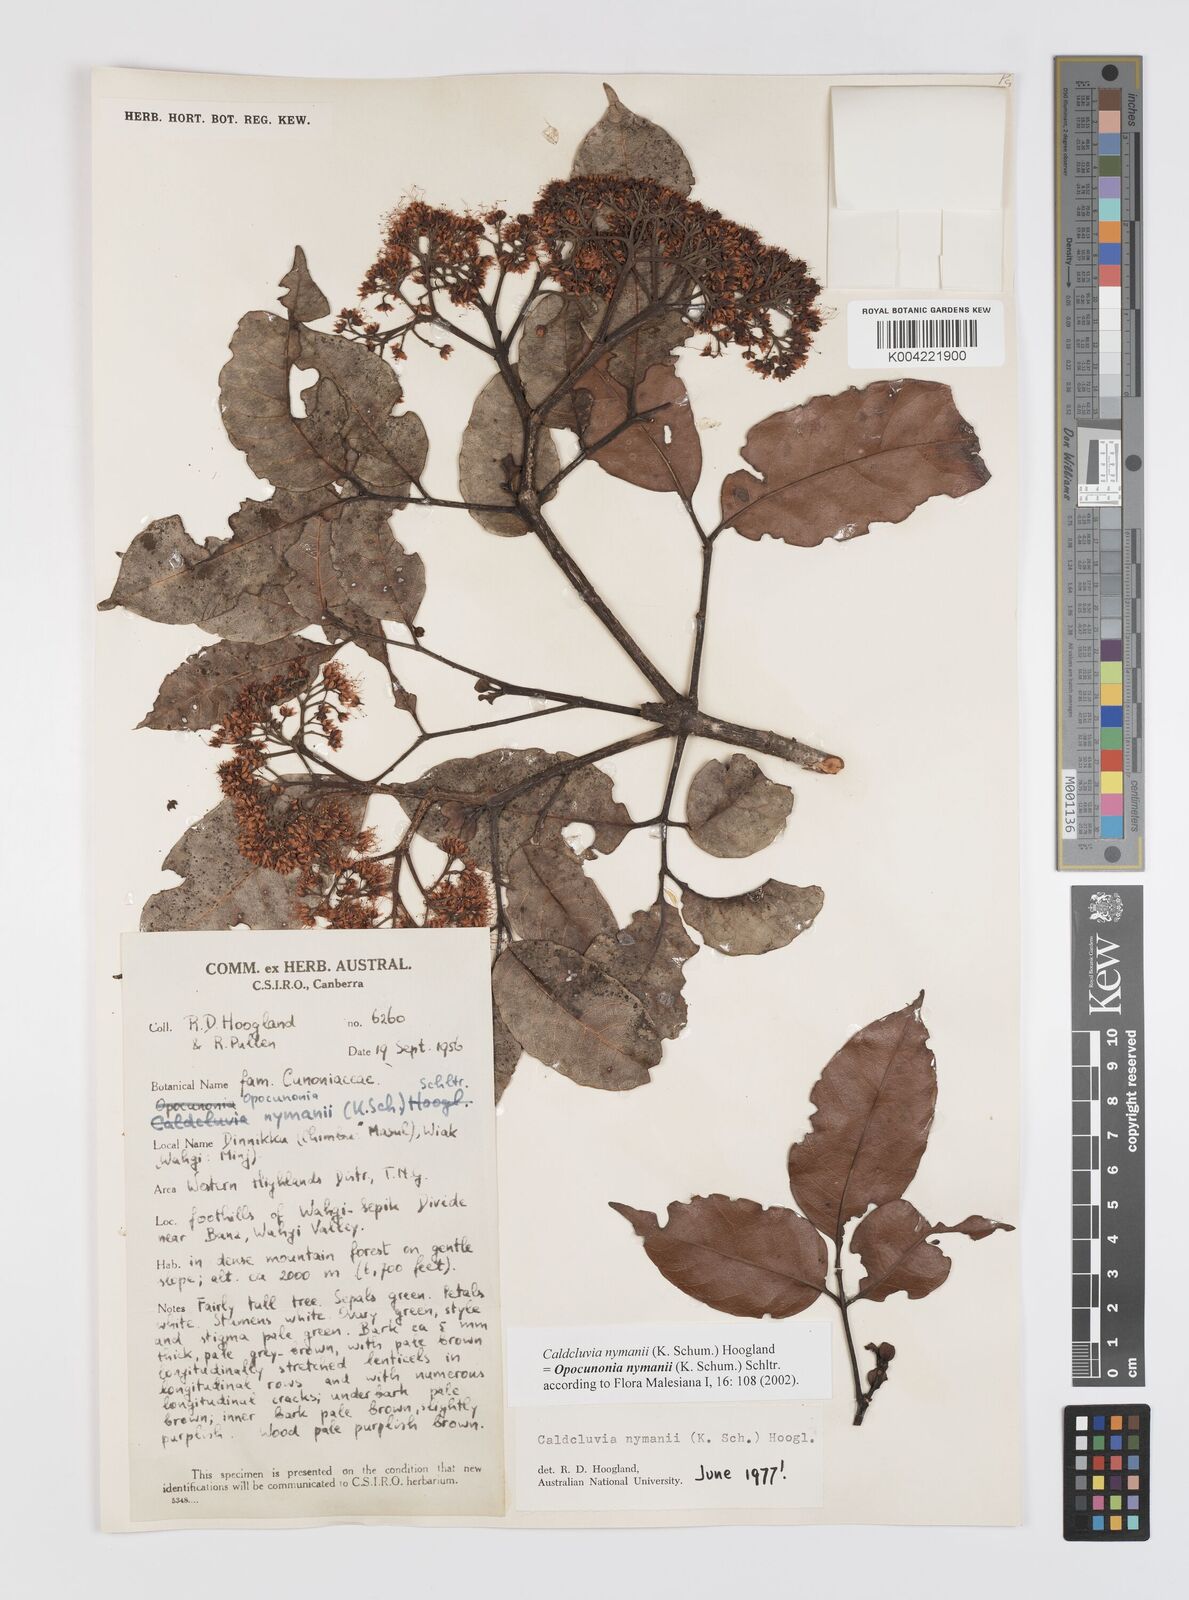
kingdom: Plantae
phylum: Tracheophyta
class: Magnoliopsida
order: Oxalidales
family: Cunoniaceae
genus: Opocunonia
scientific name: Opocunonia nymanii
